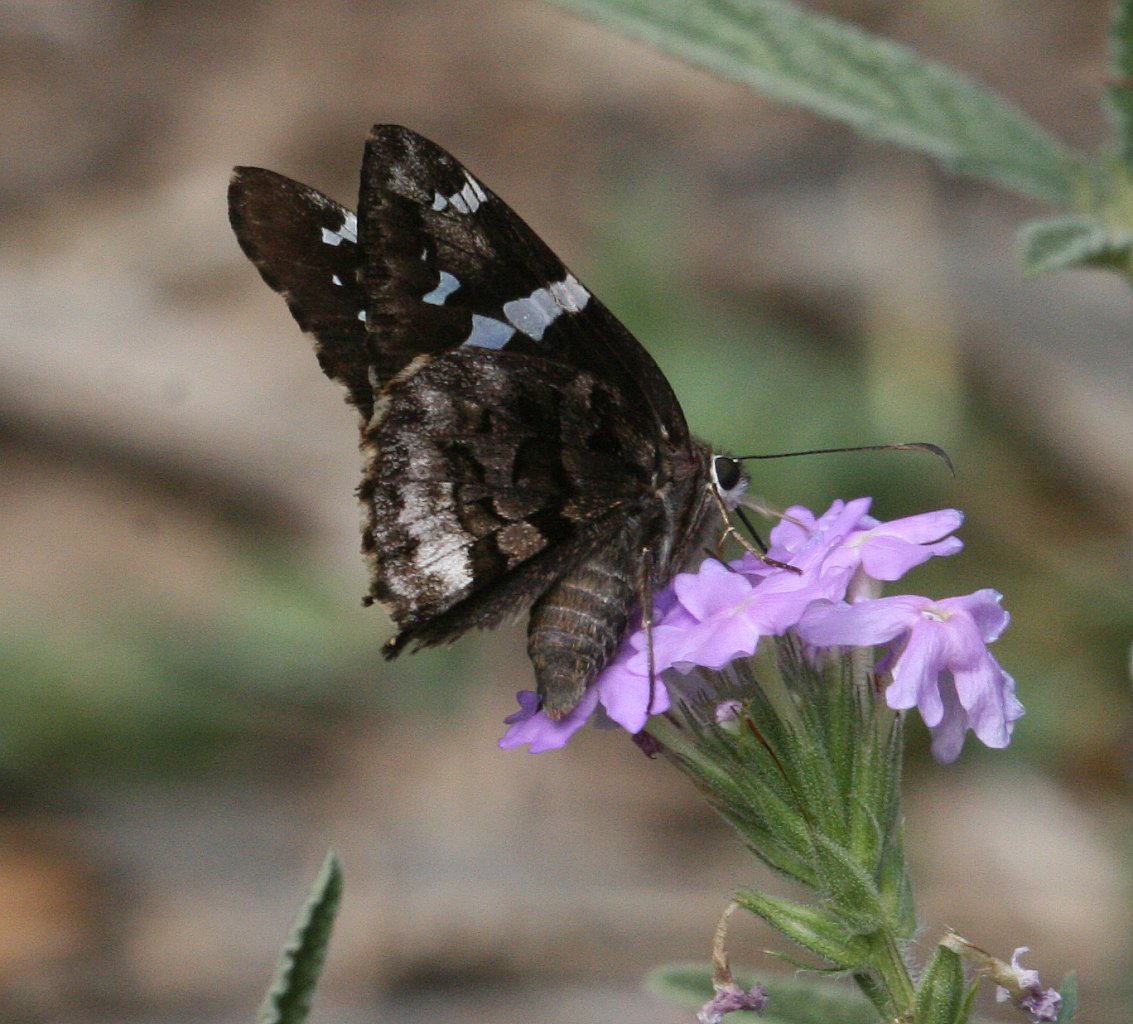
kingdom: Animalia
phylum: Arthropoda
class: Insecta
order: Lepidoptera
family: Hesperiidae
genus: Codatractus
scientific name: Codatractus arizonensis
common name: Arizona Skipper
